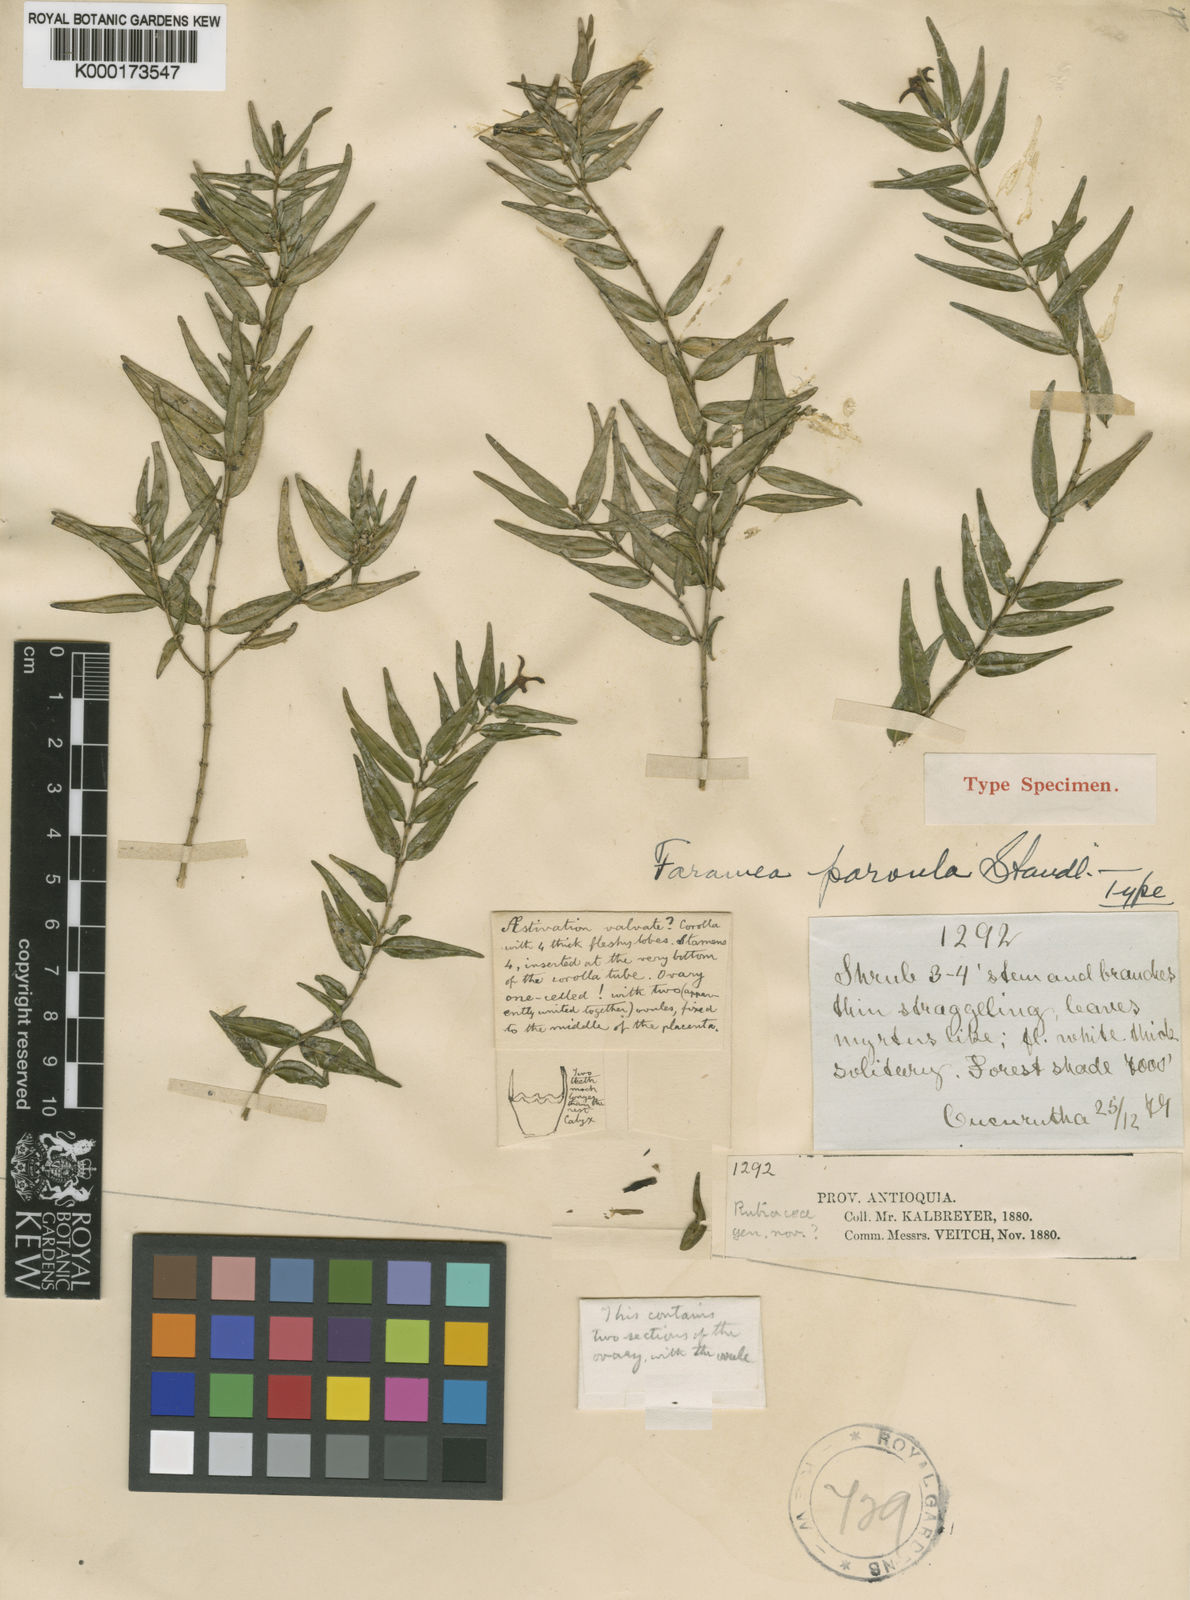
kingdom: Plantae
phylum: Tracheophyta
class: Magnoliopsida
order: Gentianales
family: Rubiaceae
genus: Faramea
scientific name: Faramea parvula
